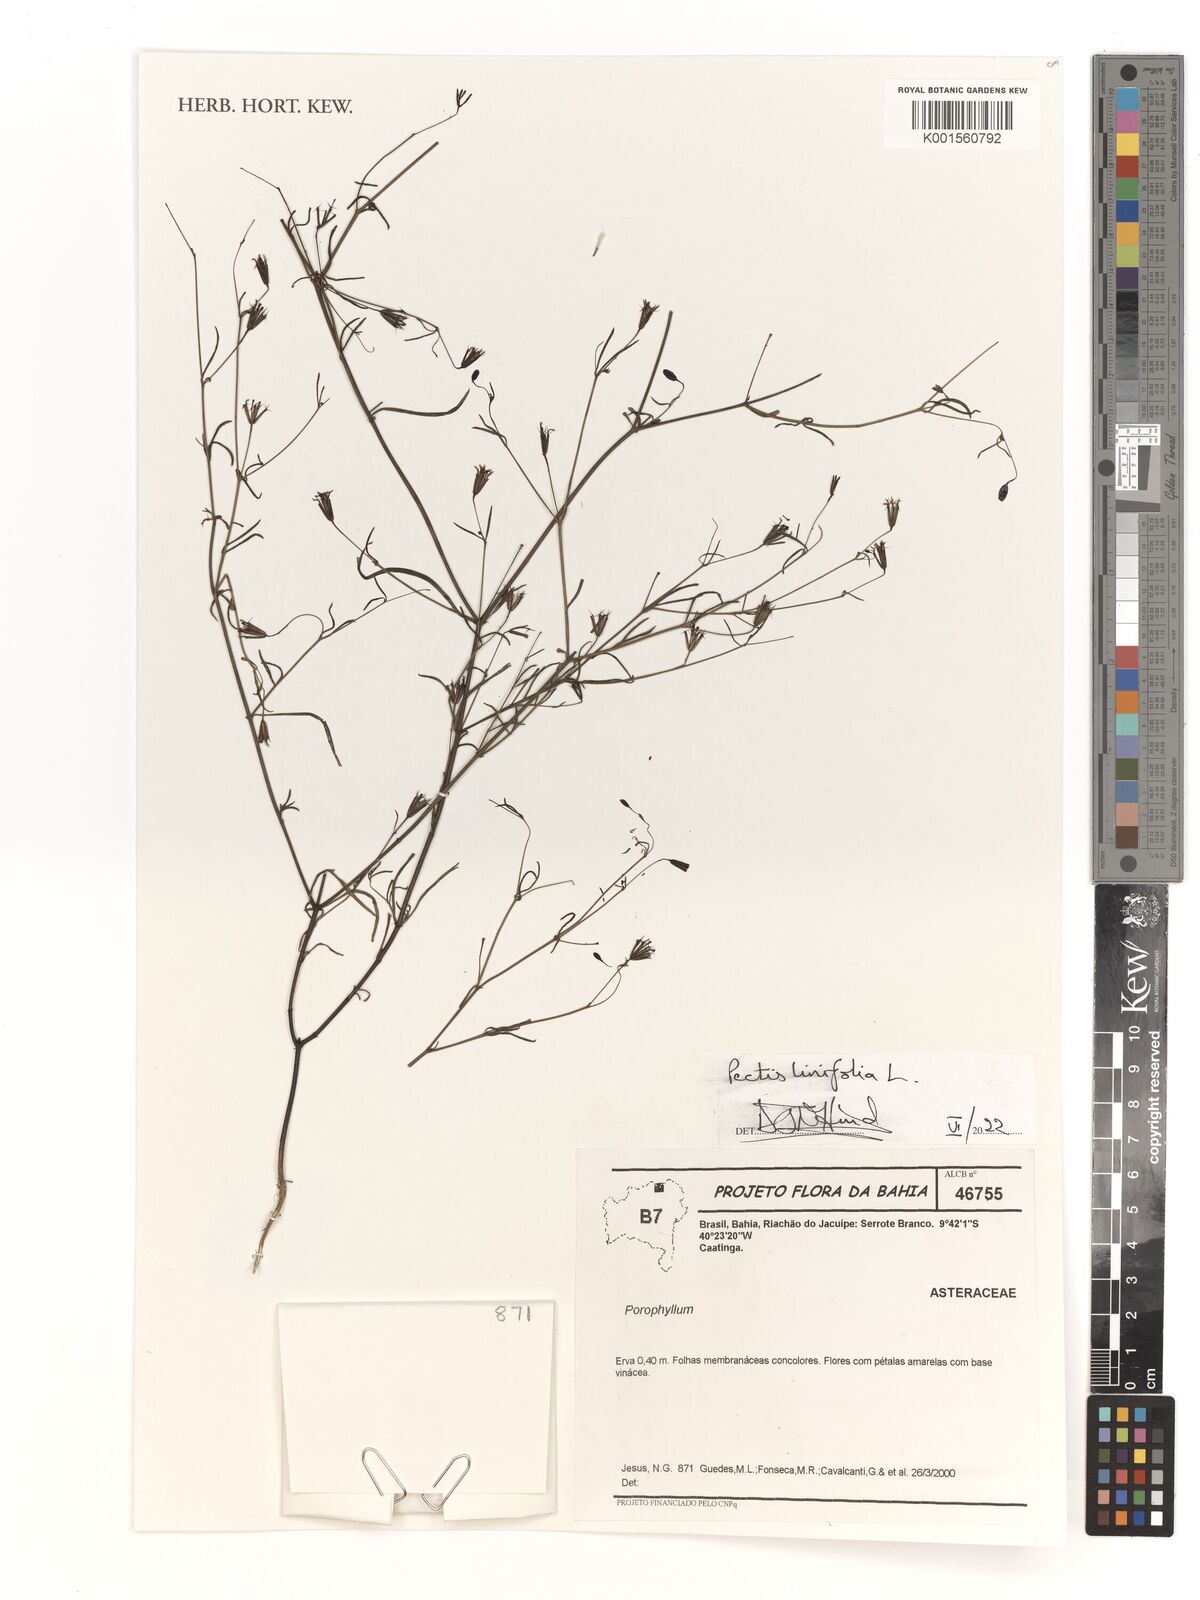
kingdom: Plantae
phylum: Tracheophyta
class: Magnoliopsida
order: Asterales
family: Asteraceae
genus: Pectis
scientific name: Pectis linifolia
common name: Romero macho
